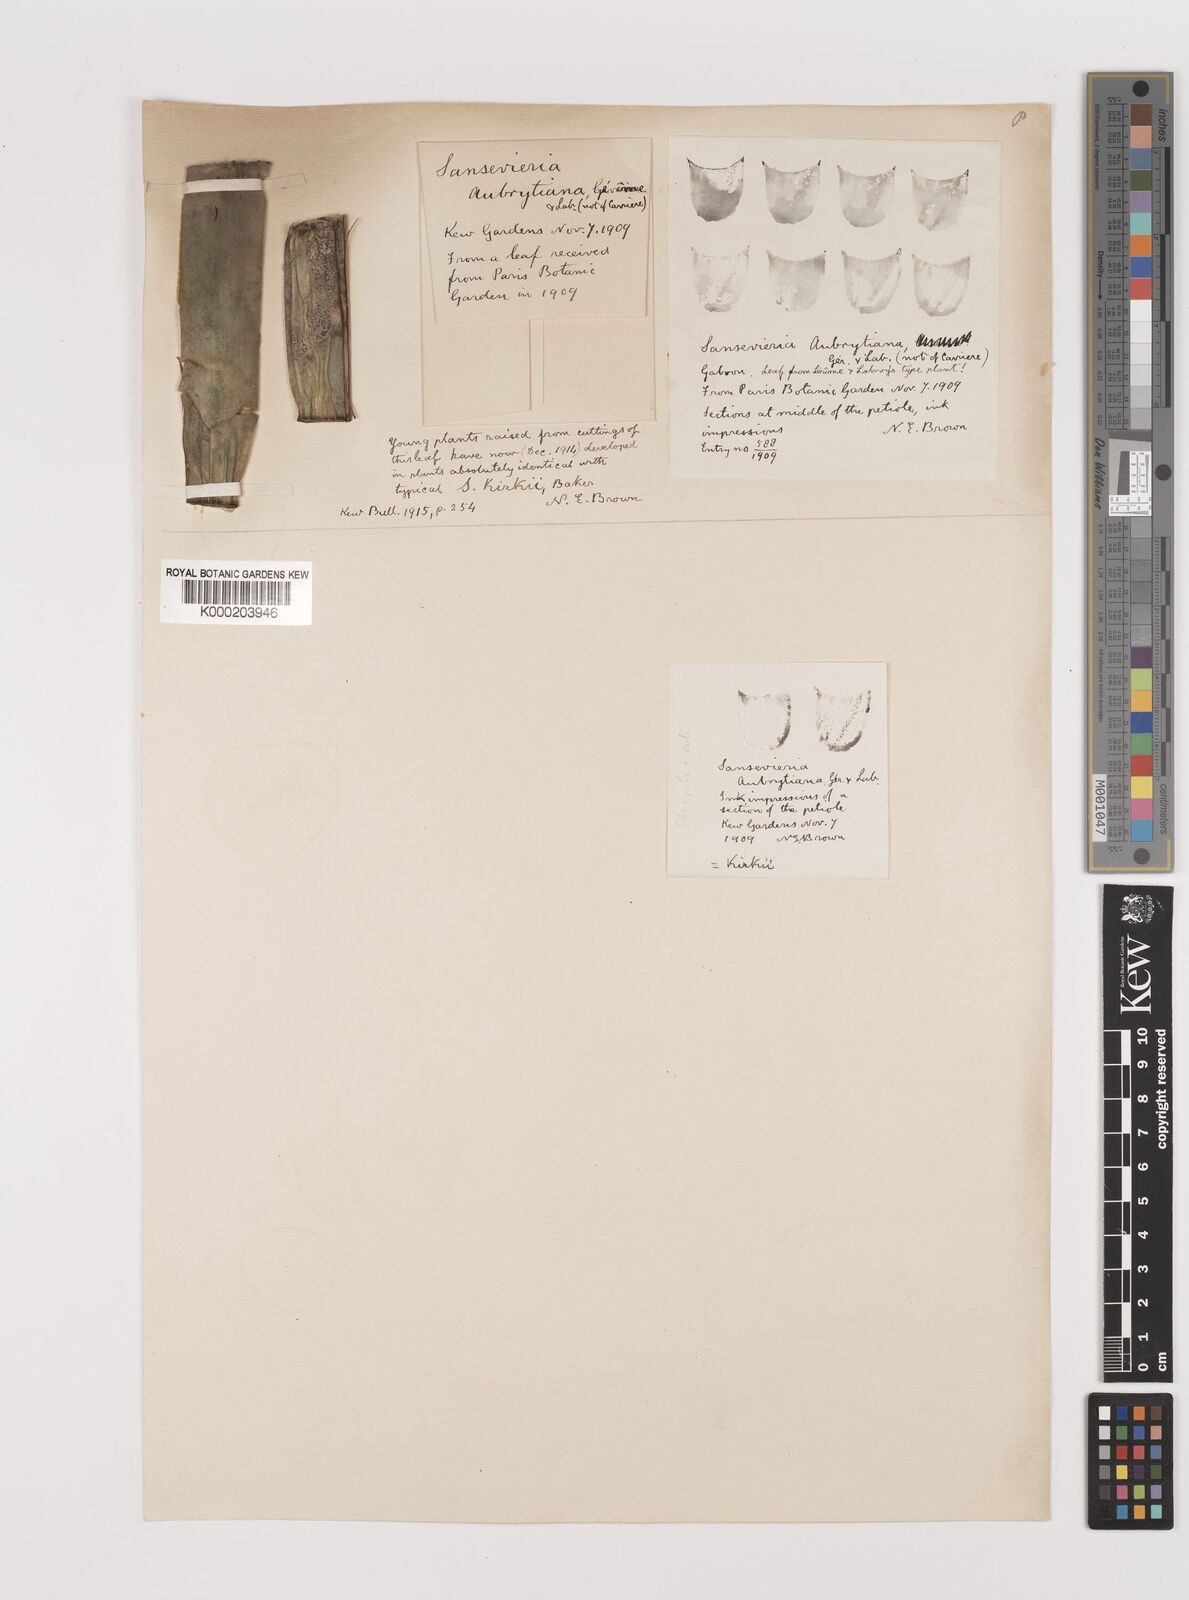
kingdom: Plantae
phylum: Tracheophyta
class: Liliopsida
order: Asparagales
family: Asparagaceae
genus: Dracaena
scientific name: Dracaena pethera
